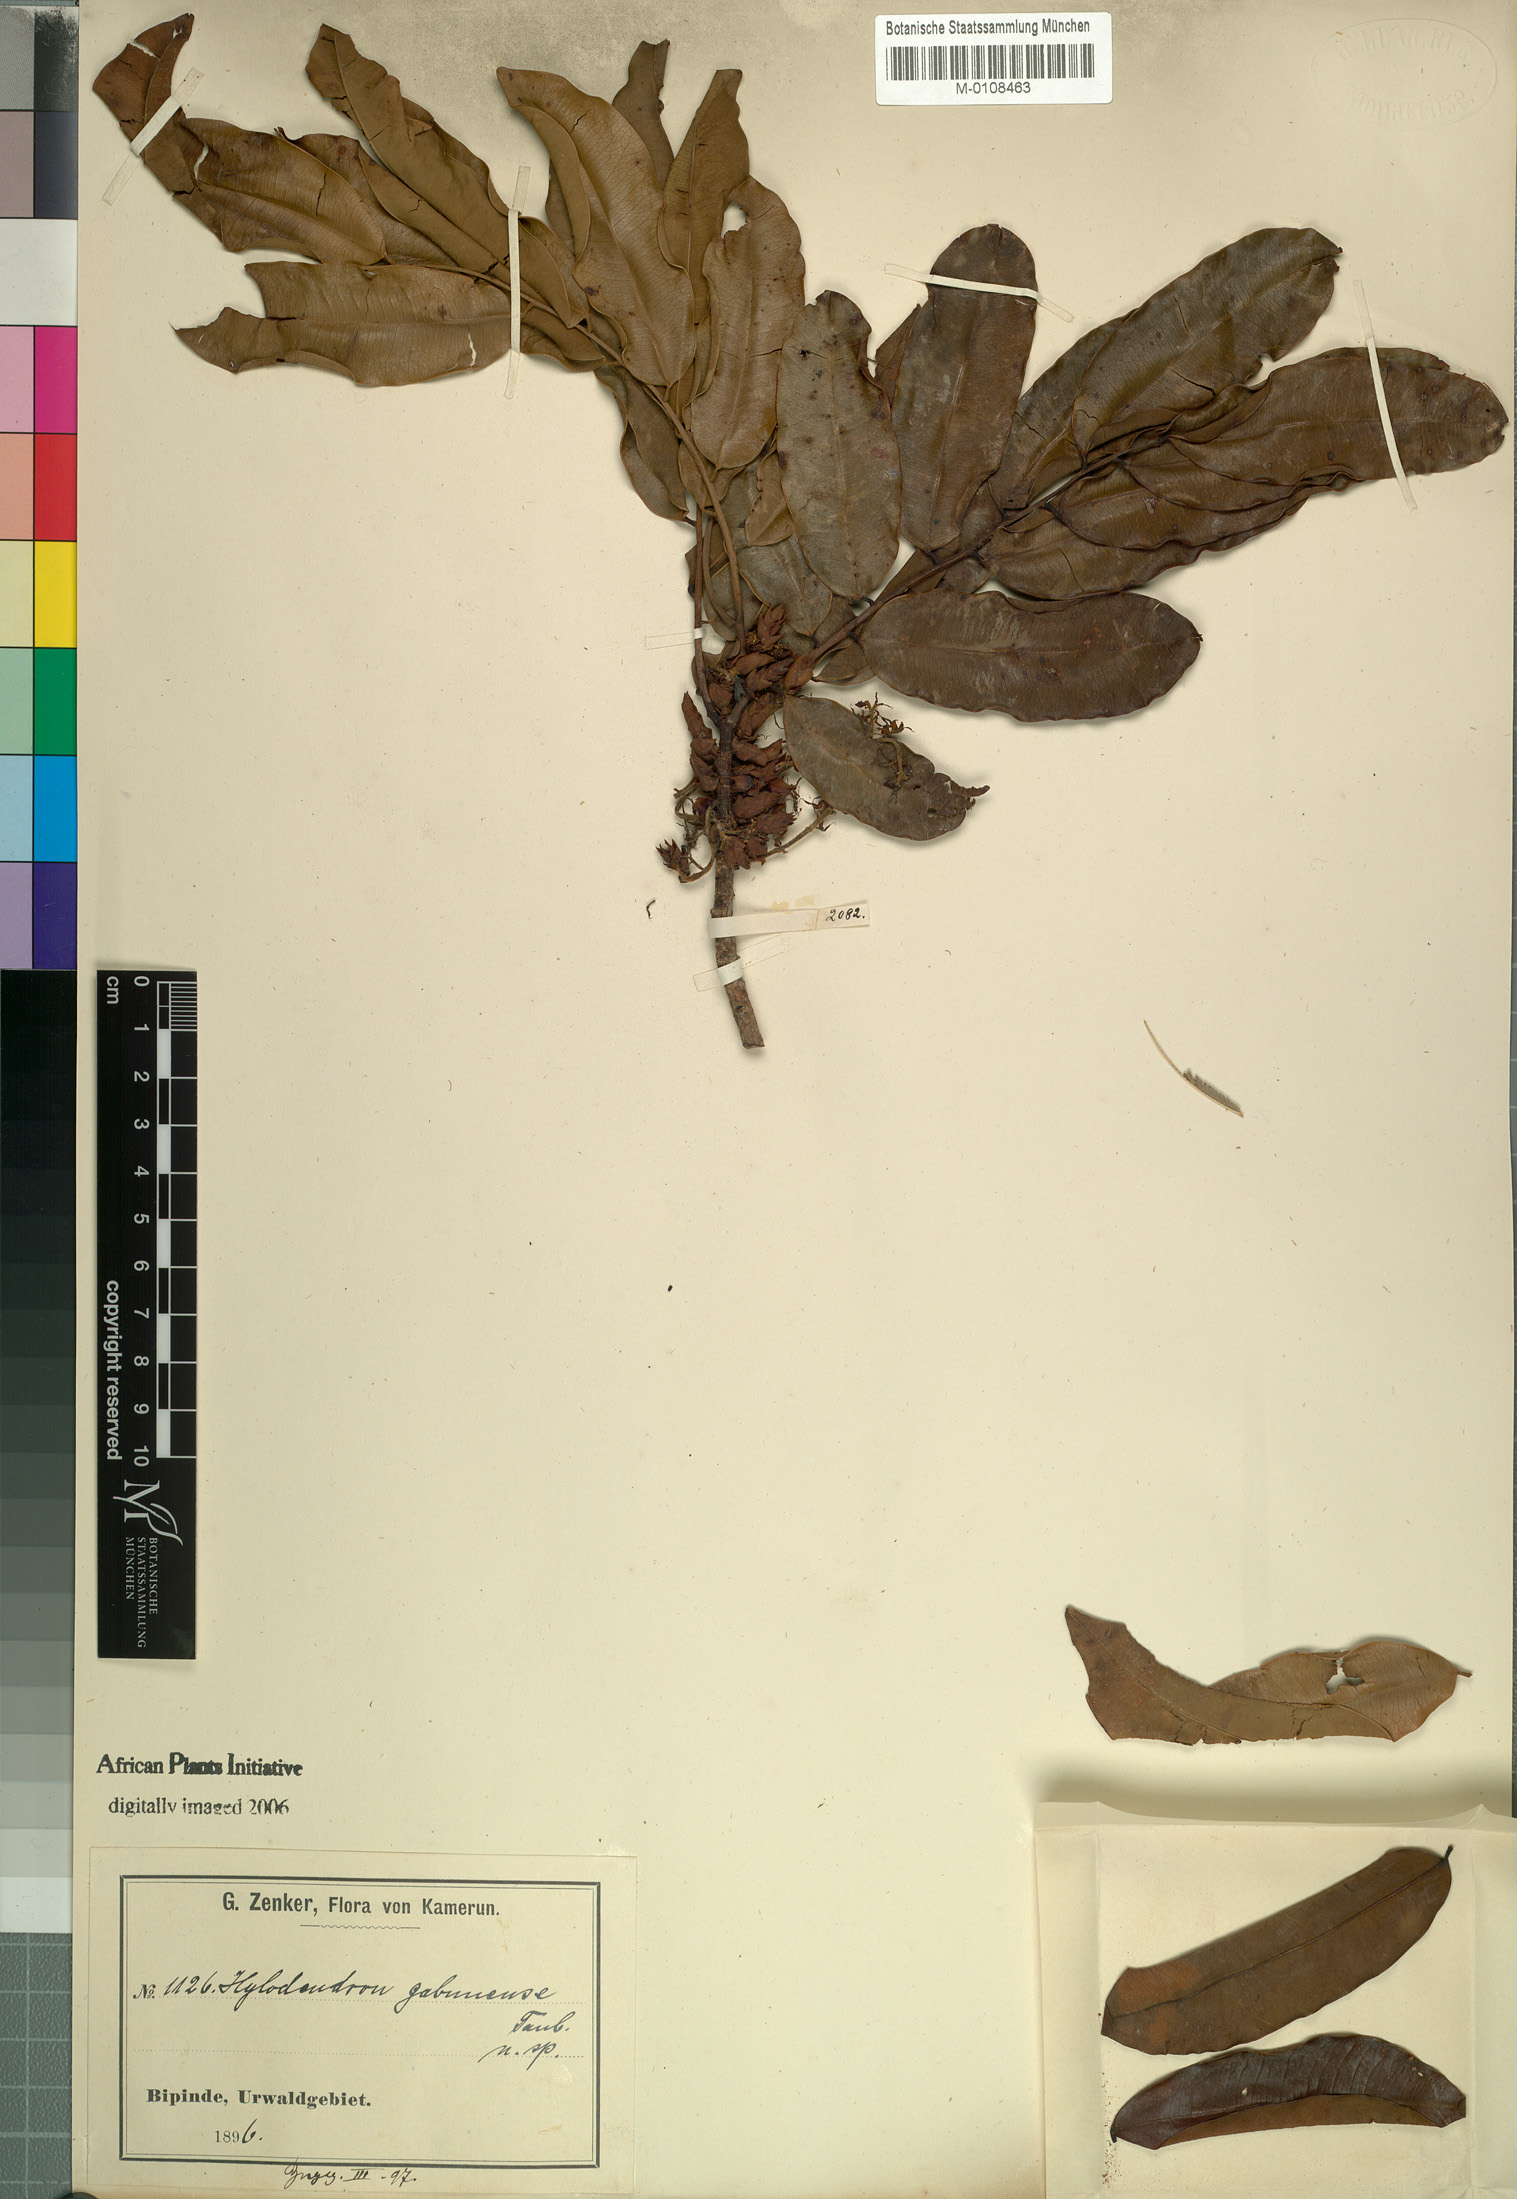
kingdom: Plantae
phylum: Tracheophyta
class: Magnoliopsida
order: Fabales
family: Fabaceae
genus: Hylodendron
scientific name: Hylodendron gabunense
